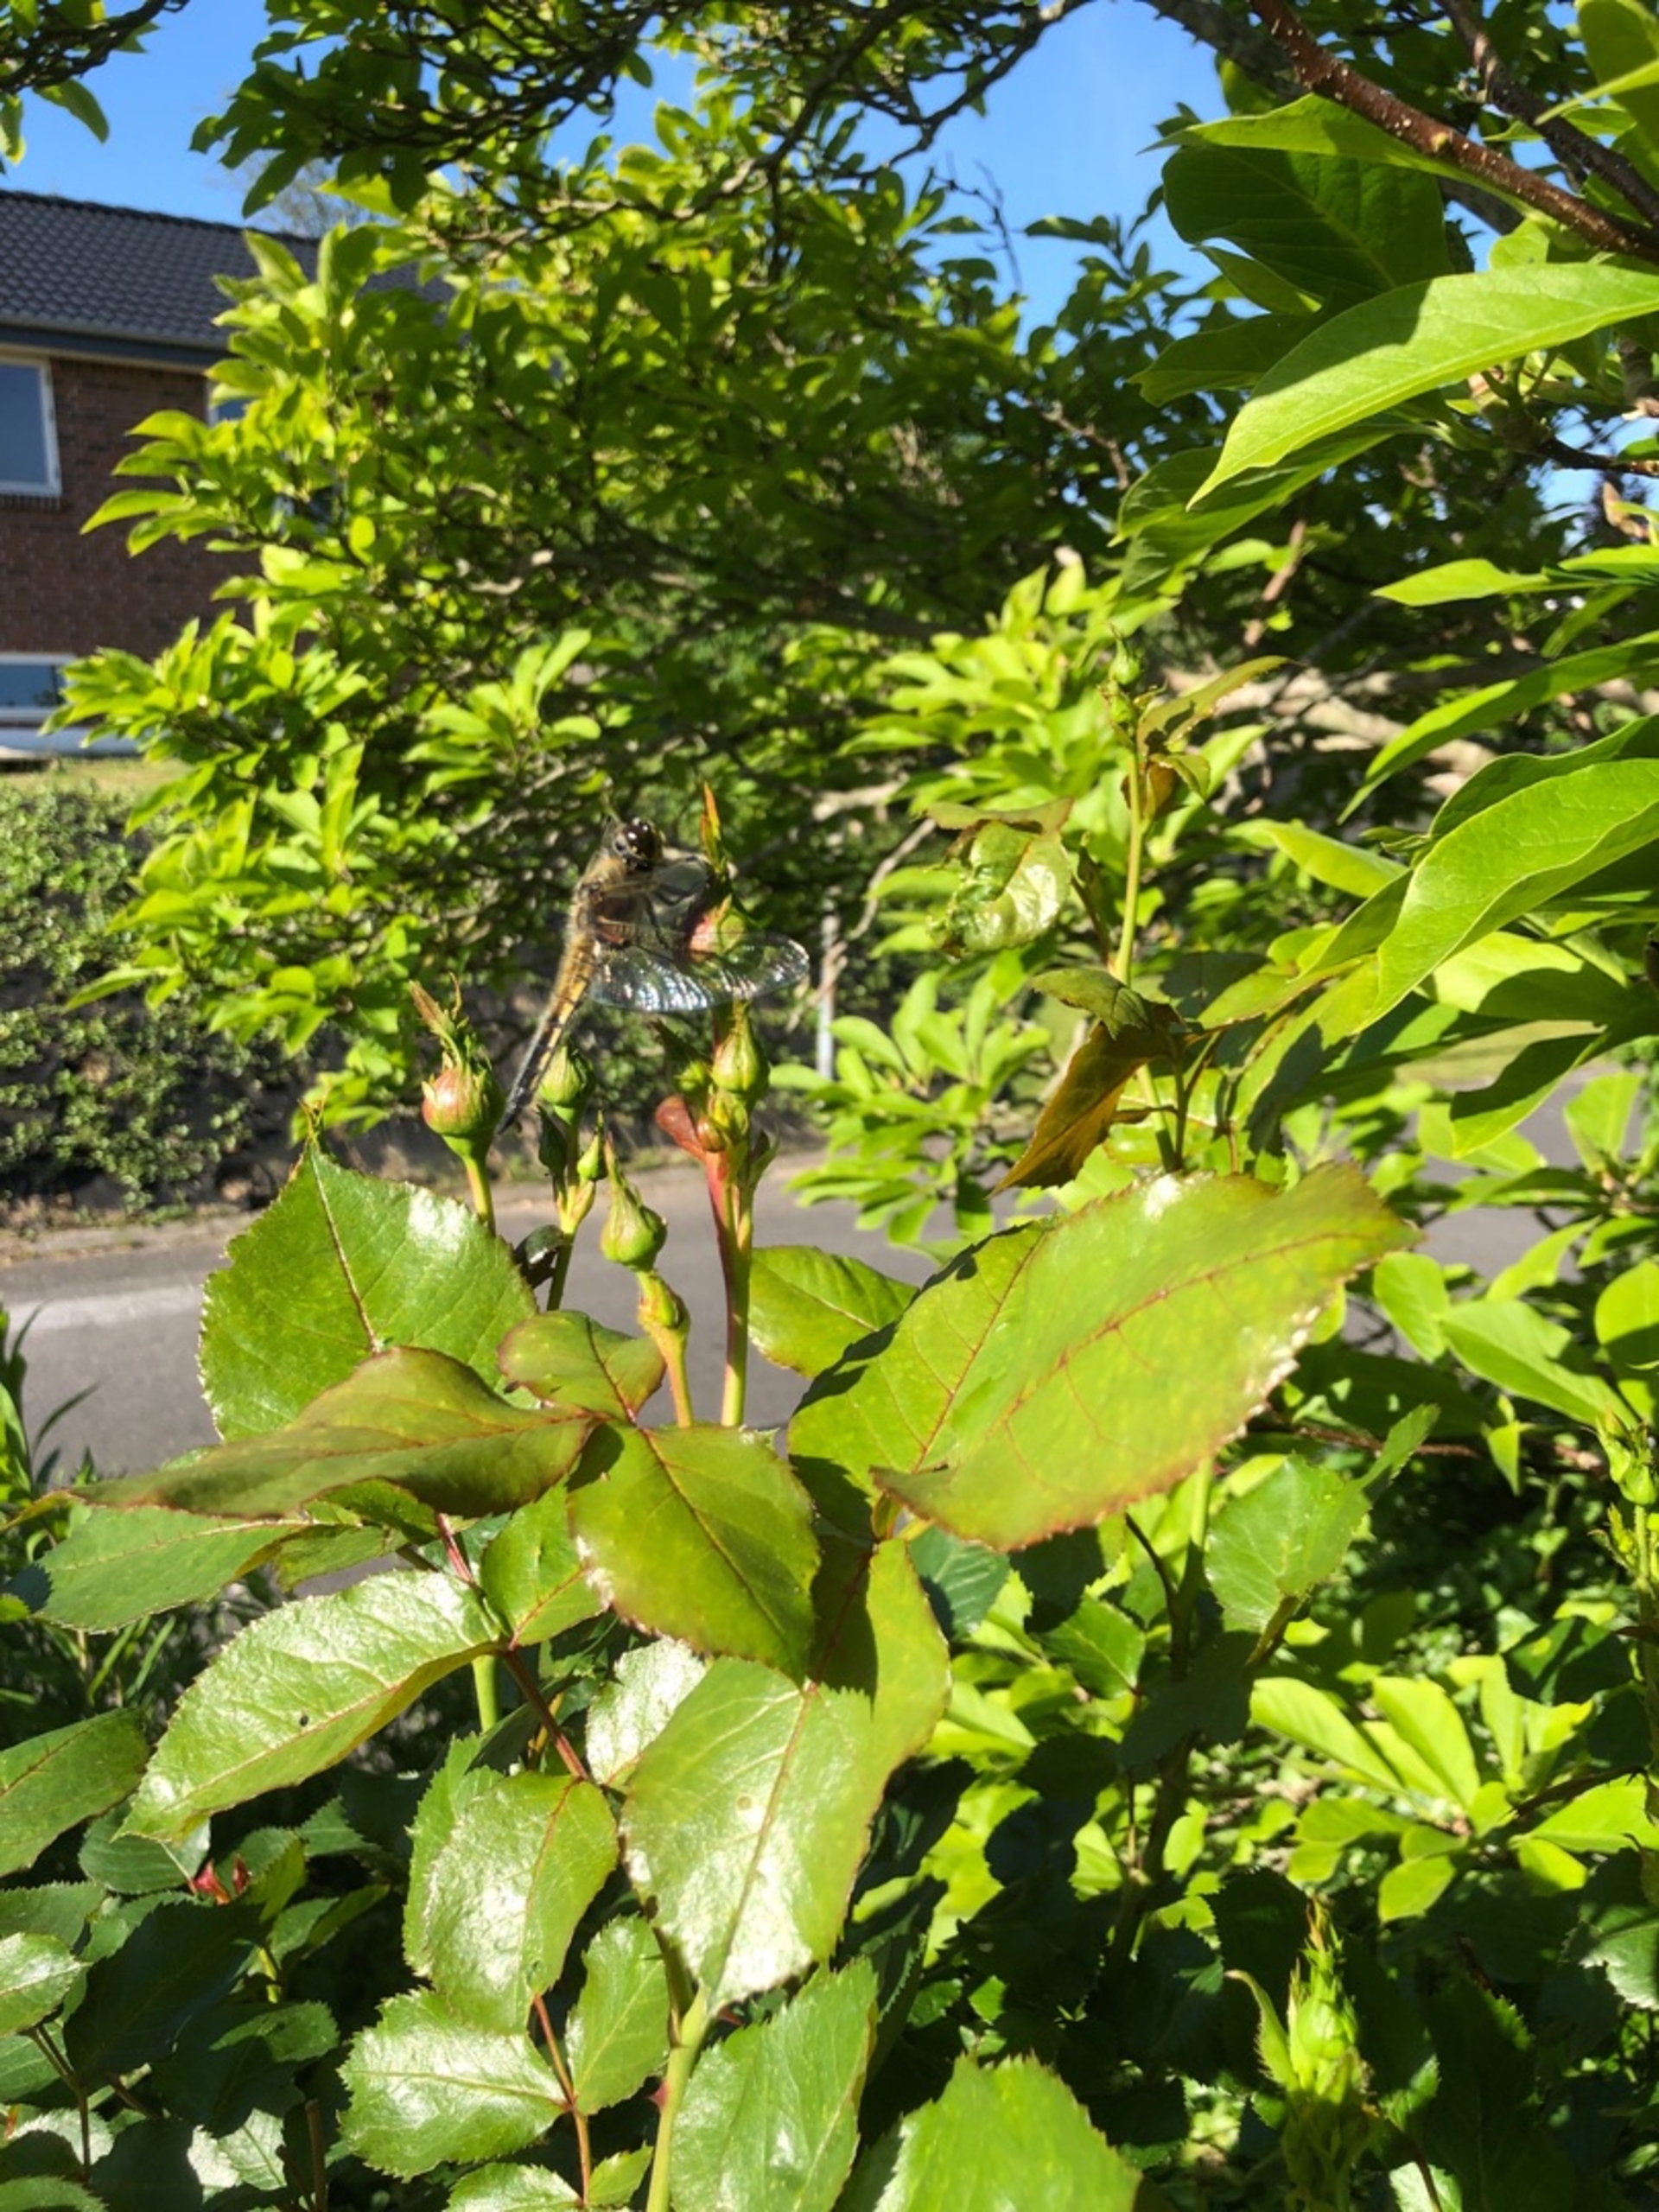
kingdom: Animalia
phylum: Arthropoda
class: Insecta
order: Odonata
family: Libellulidae
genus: Libellula
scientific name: Libellula quadrimaculata
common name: Fireplettet libel
